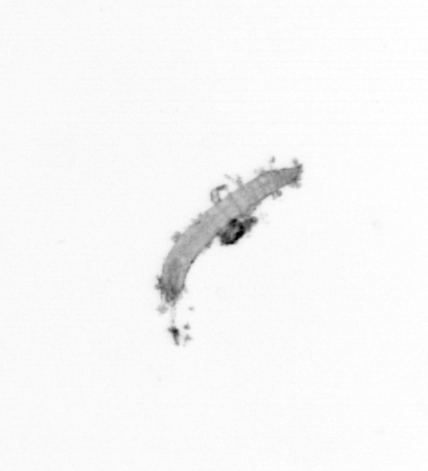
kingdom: Animalia
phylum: Annelida
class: Polychaeta
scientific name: Polychaeta
